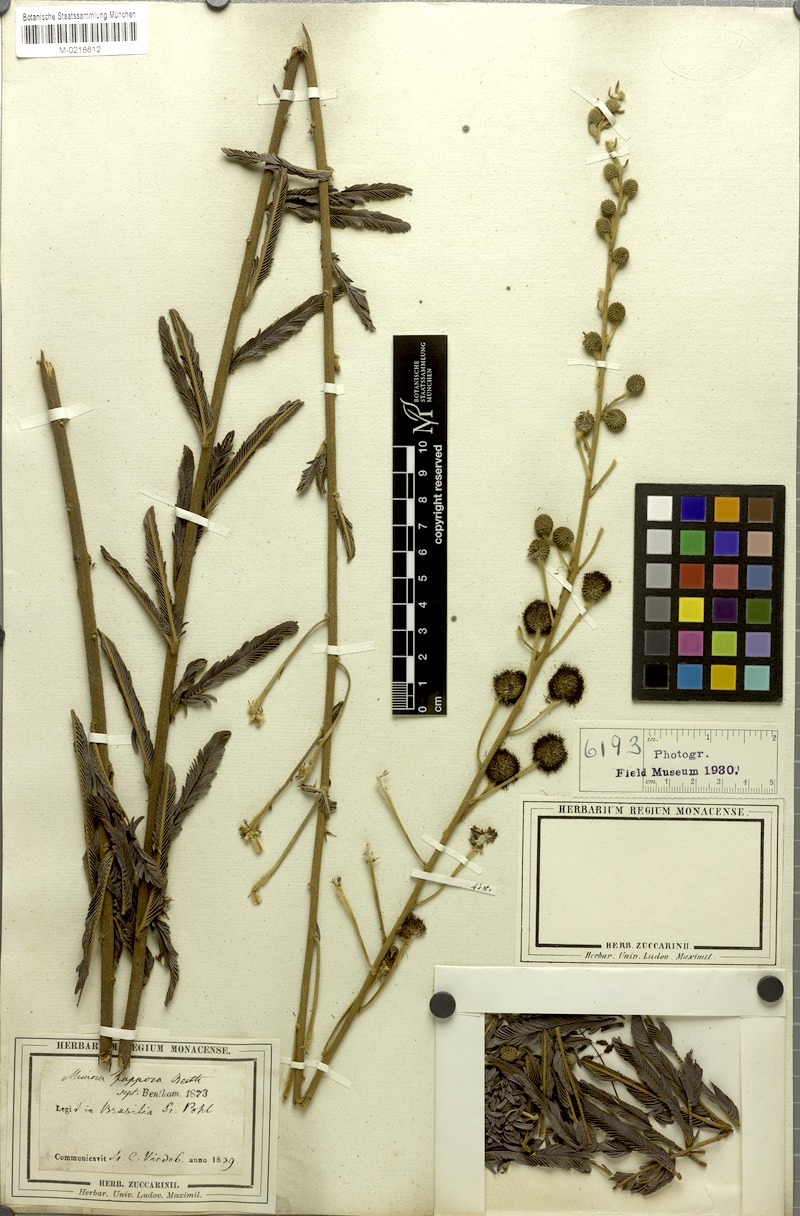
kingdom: Plantae
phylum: Tracheophyta
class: Magnoliopsida
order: Fabales
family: Fabaceae
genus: Mimosa
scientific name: Mimosa papposa
